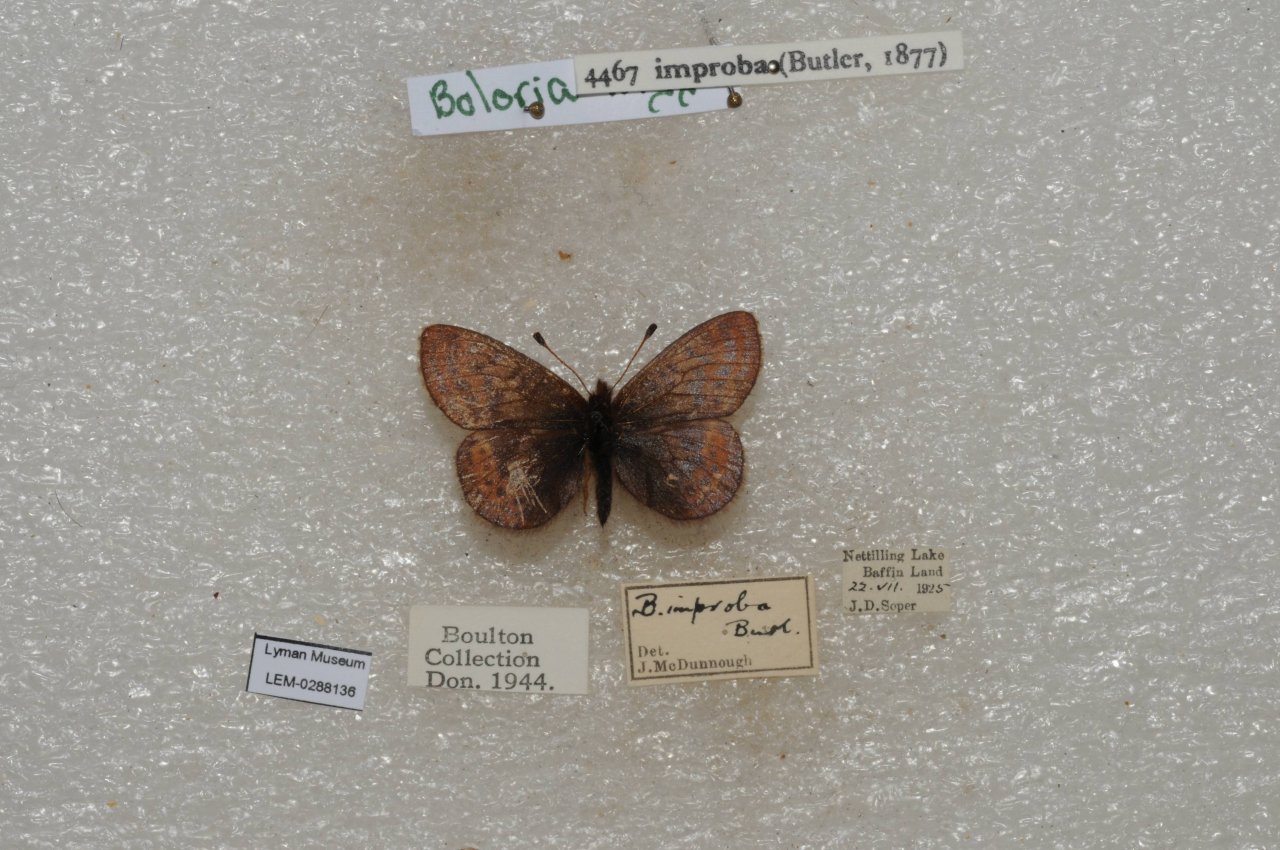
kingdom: Animalia
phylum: Arthropoda
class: Insecta
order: Lepidoptera
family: Nymphalidae
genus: Clossiana
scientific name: Clossiana improba
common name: Dingy Fritillary
